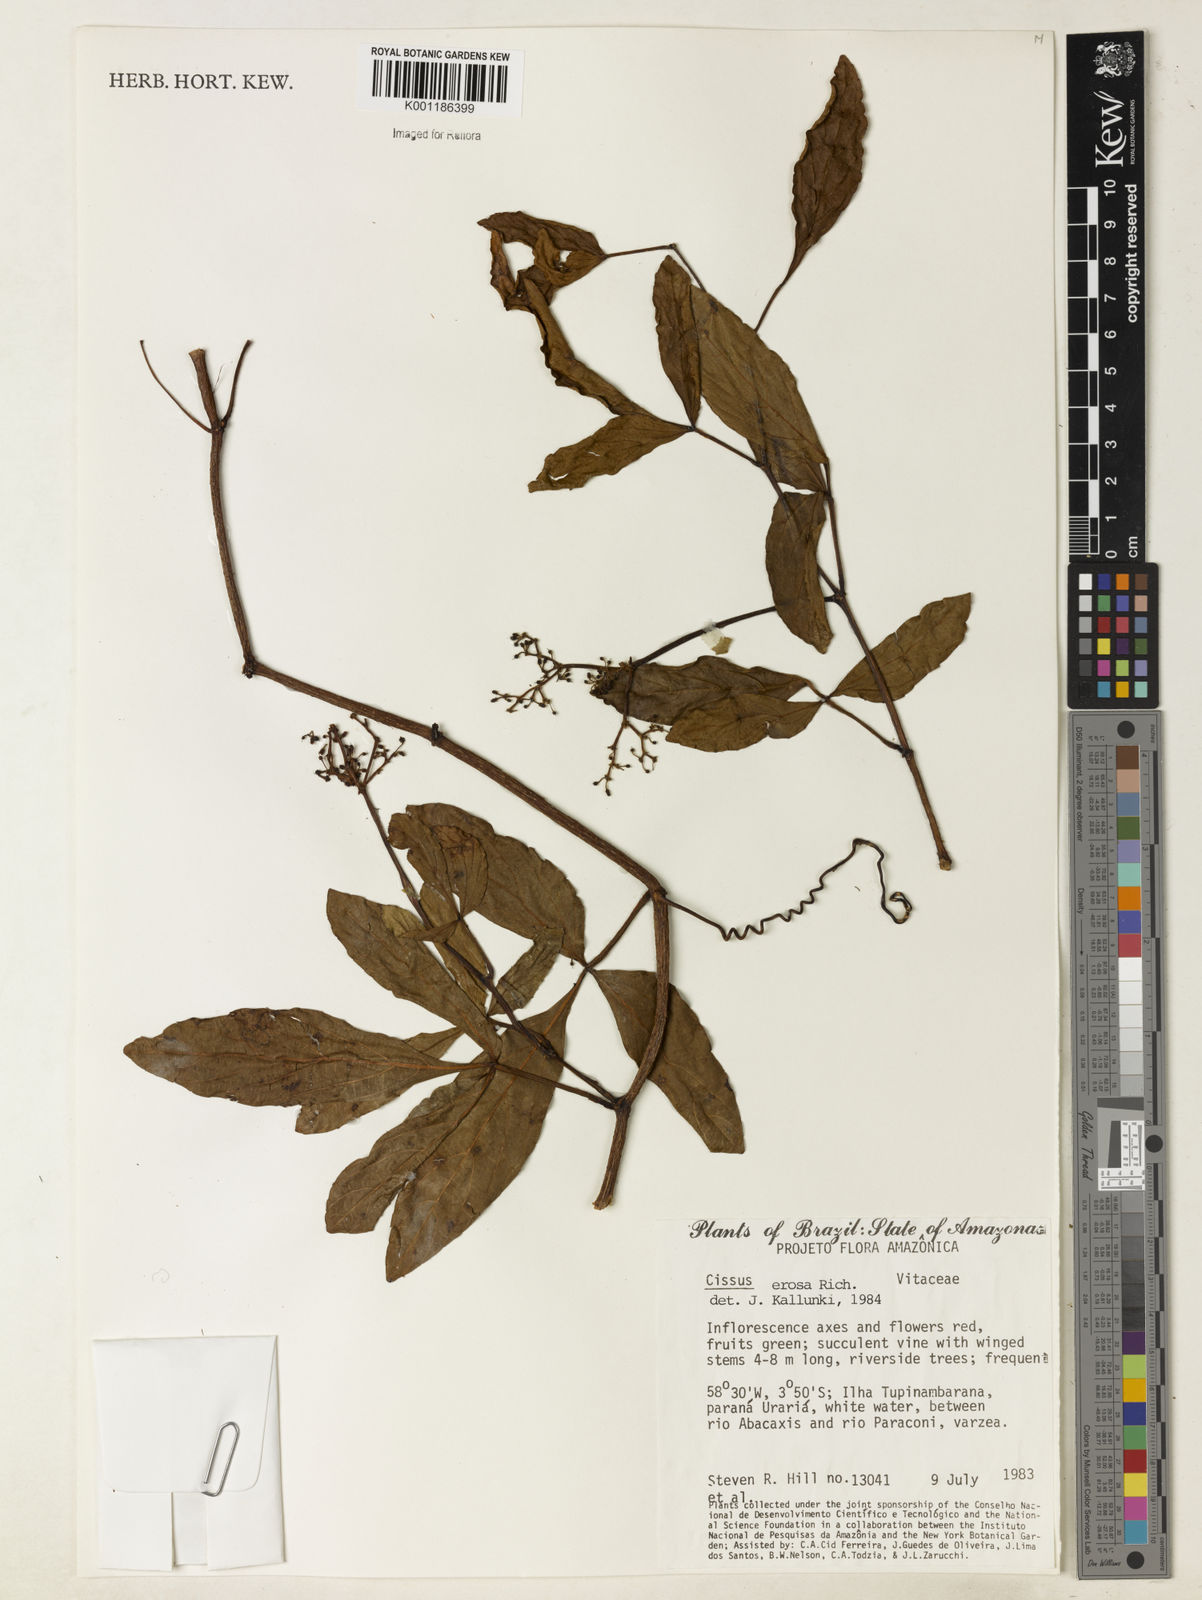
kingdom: Plantae
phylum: Tracheophyta
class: Magnoliopsida
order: Vitales
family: Vitaceae
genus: Cissus
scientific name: Cissus erosa
